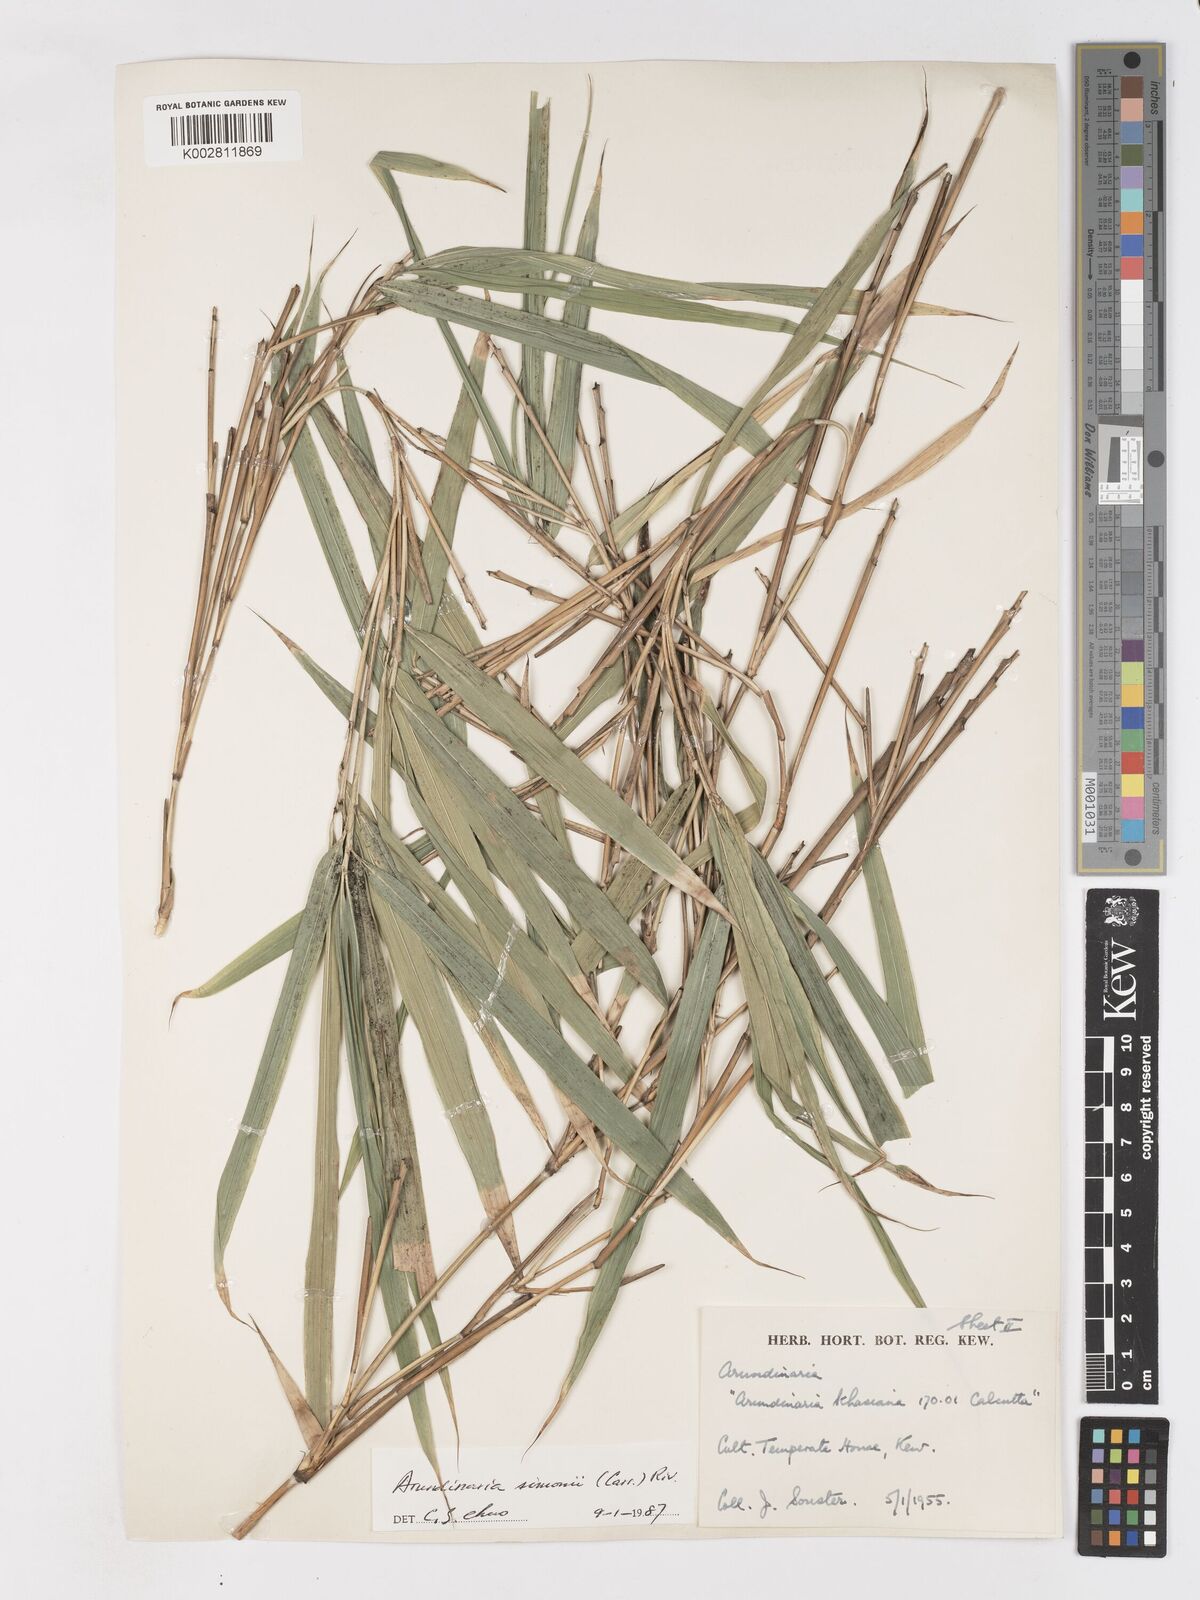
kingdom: Plantae
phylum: Tracheophyta
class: Liliopsida
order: Poales
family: Poaceae
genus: Pleioblastus
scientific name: Pleioblastus simonii
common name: Simon bamboo
